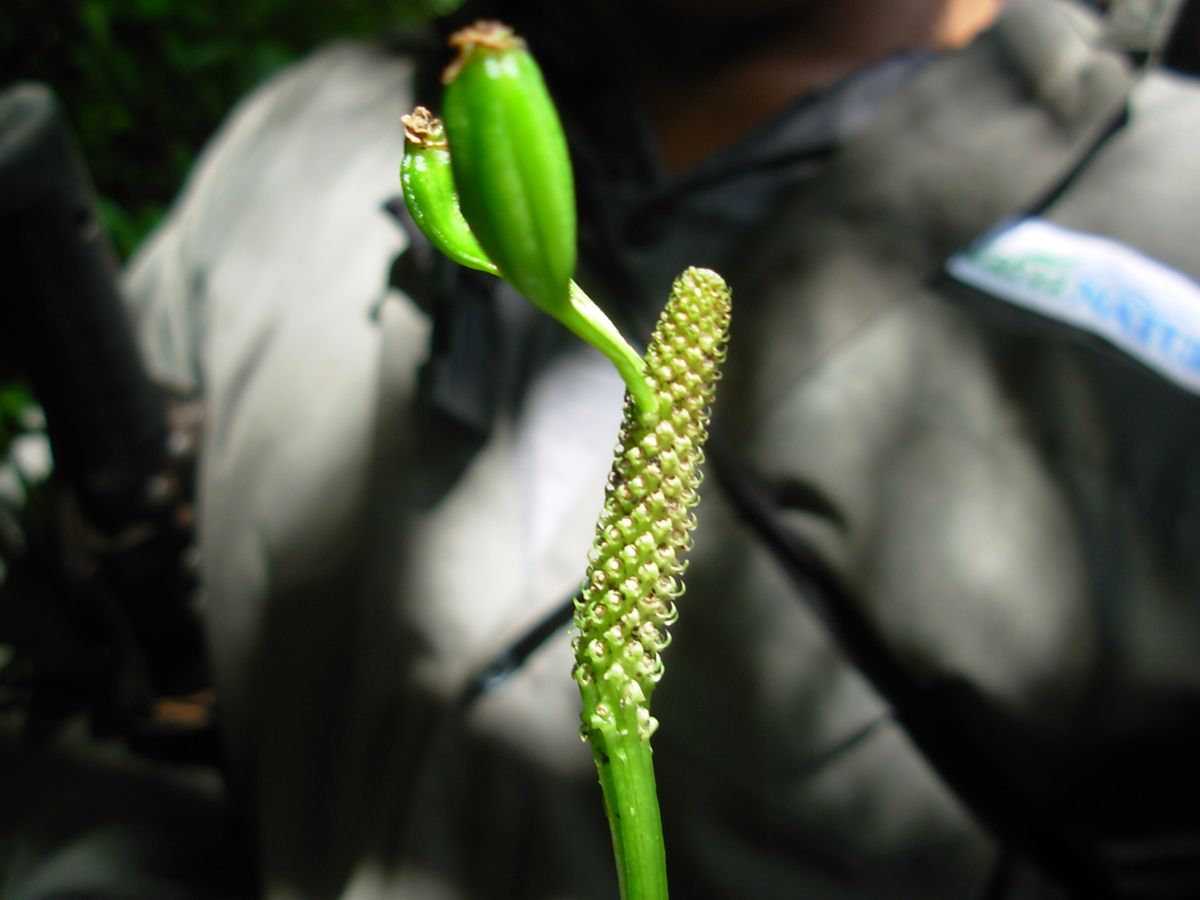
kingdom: Plantae
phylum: Tracheophyta
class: Liliopsida
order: Asparagales
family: Orchidaceae
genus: Malaxis
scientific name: Malaxis wercklei
